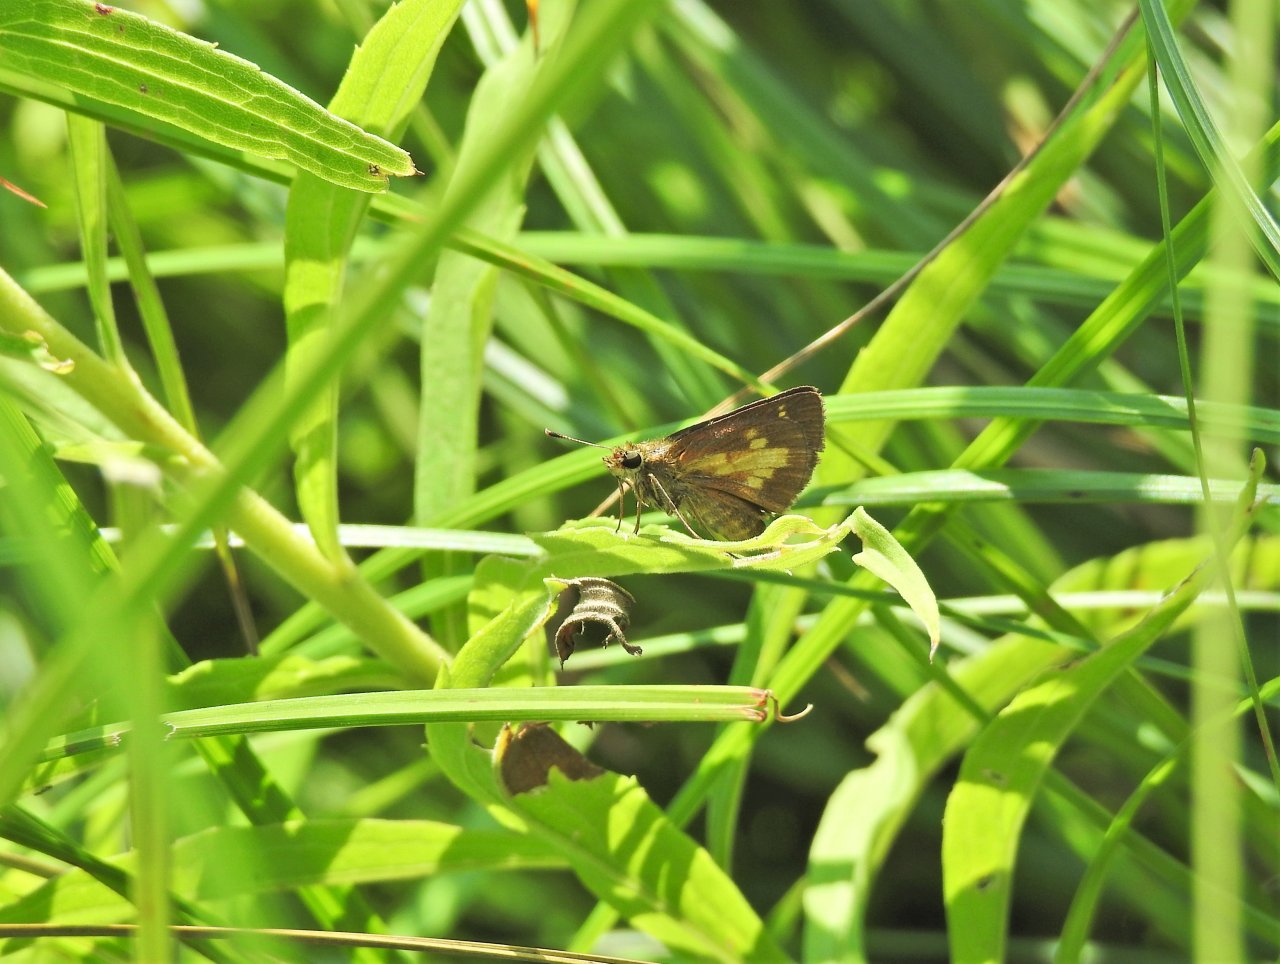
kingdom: Animalia
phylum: Arthropoda
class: Insecta
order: Lepidoptera
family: Hesperiidae
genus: Poanes
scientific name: Poanes massasoit
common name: Mulberry Wing
